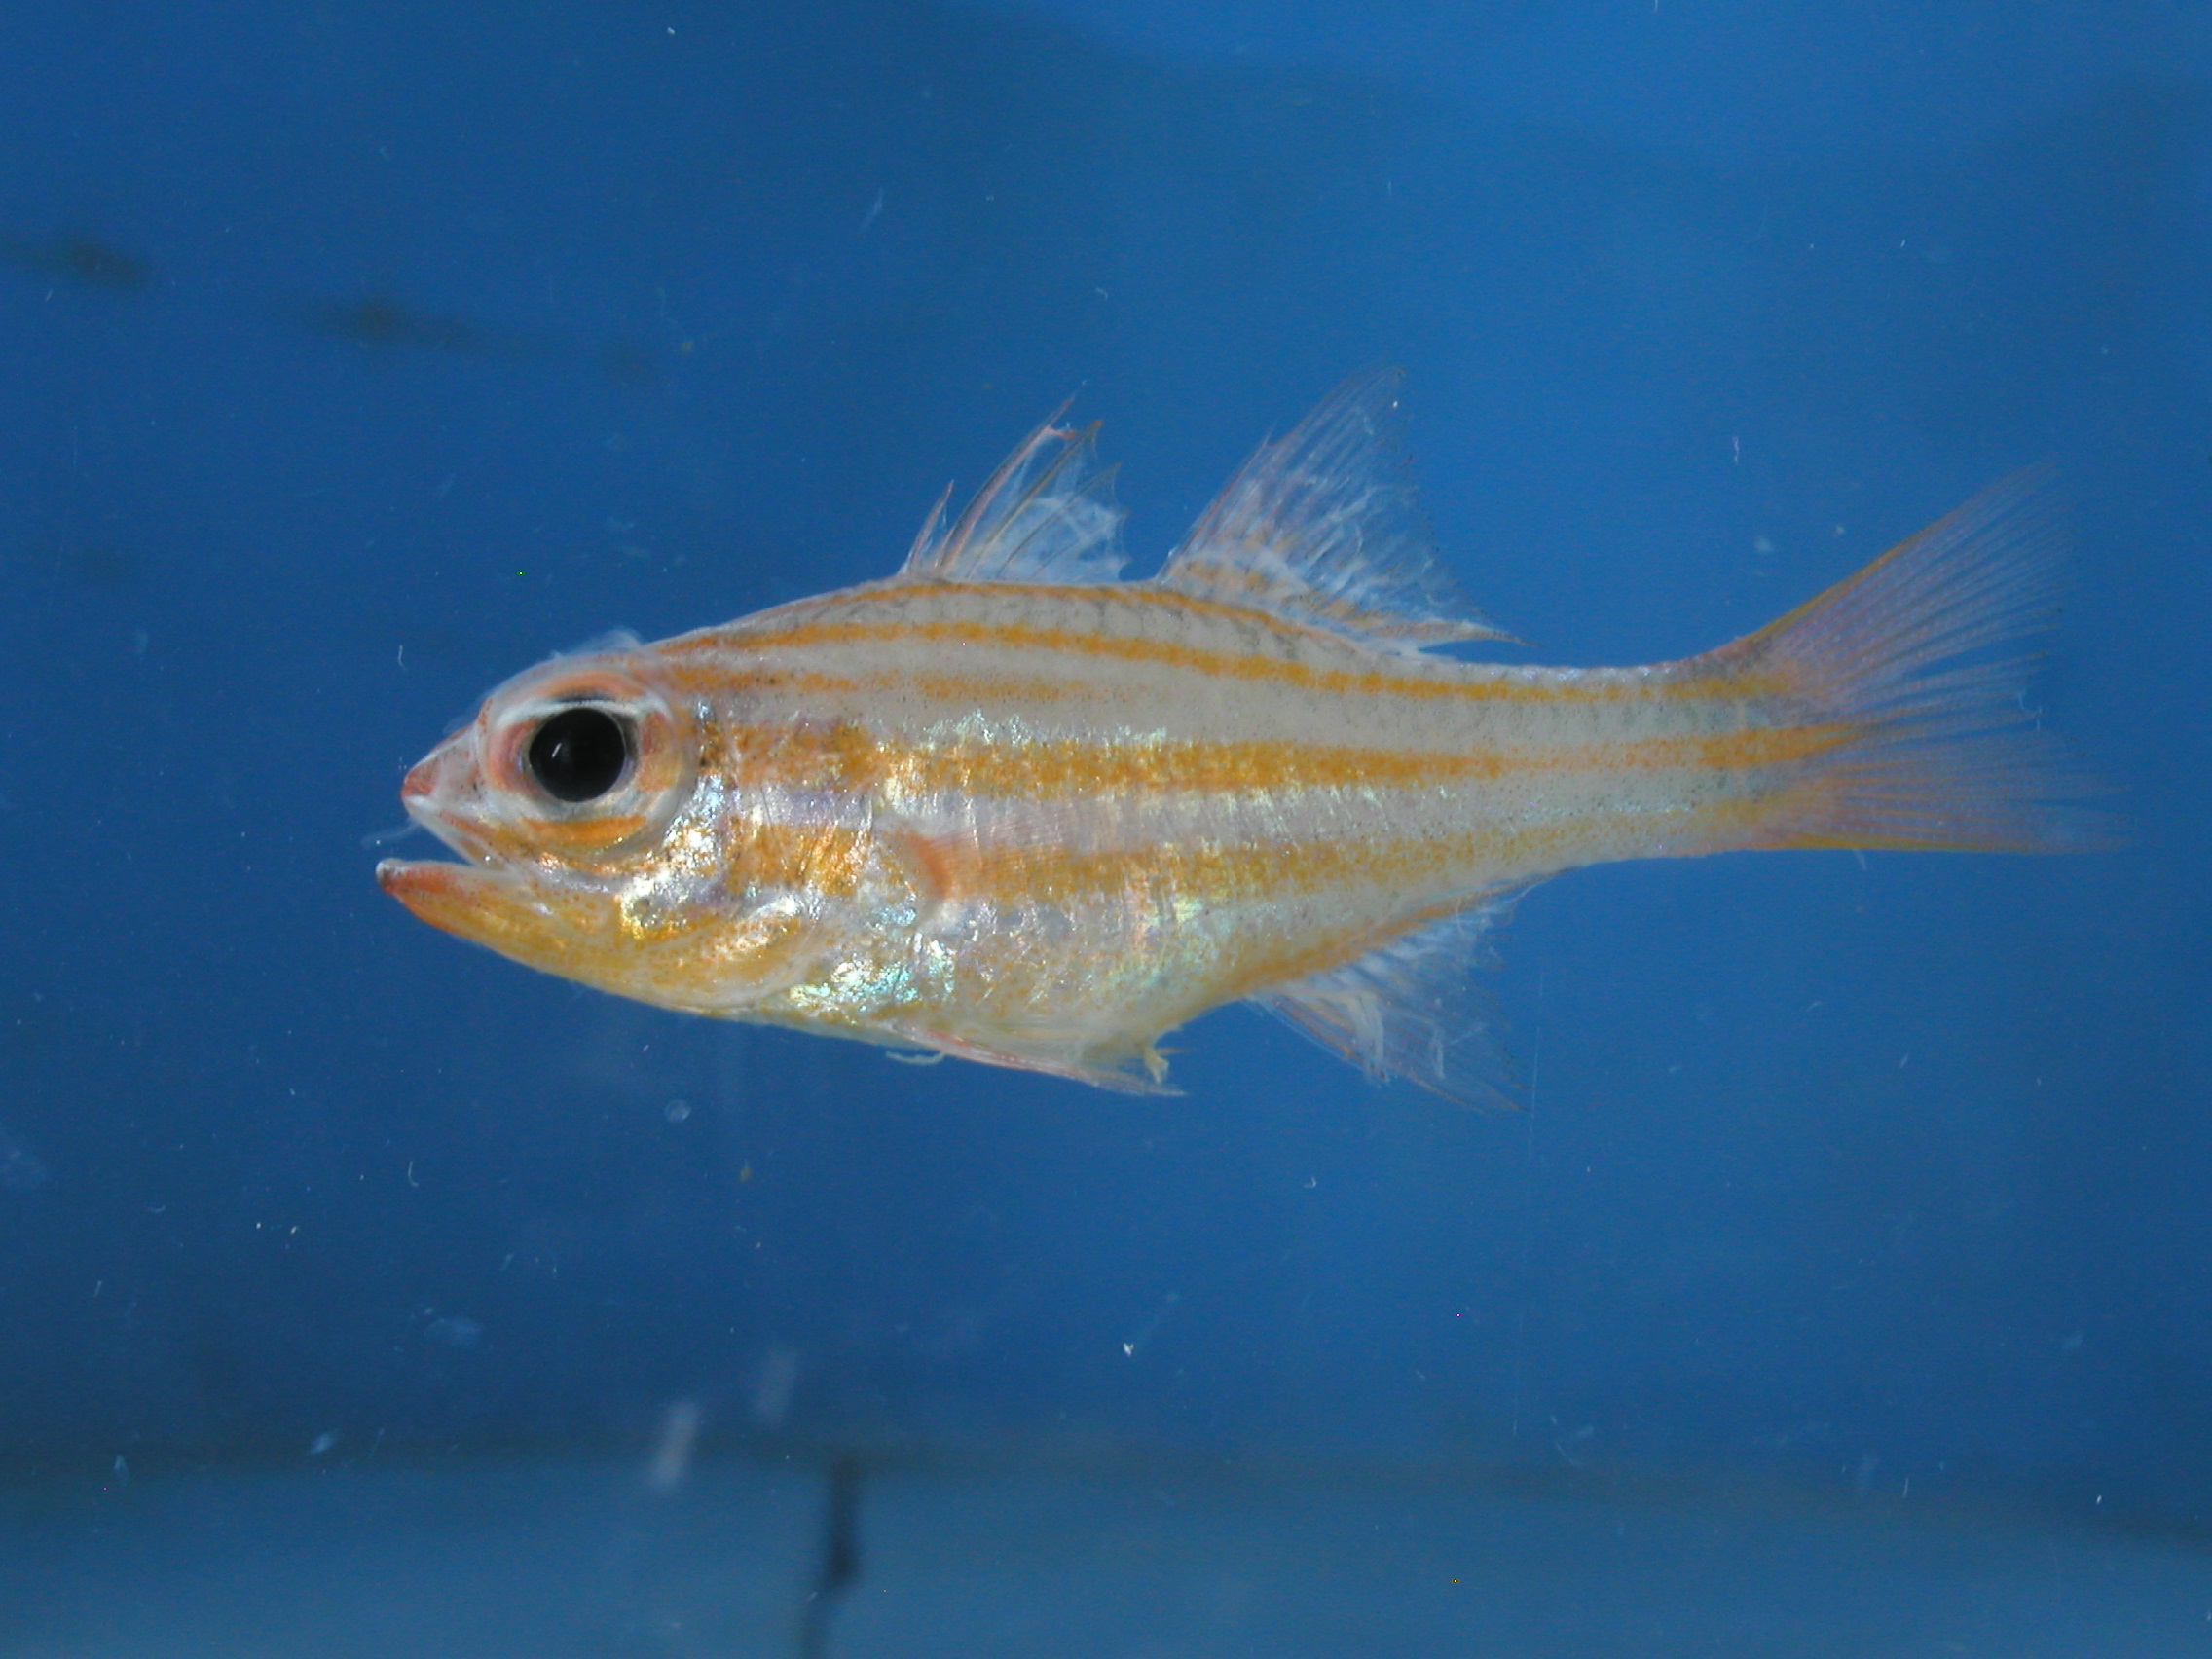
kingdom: Animalia
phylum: Chordata
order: Perciformes
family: Apogonidae
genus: Ostorhinchus
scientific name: Ostorhinchus holotaenia
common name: Copperstriped cardinalfish
